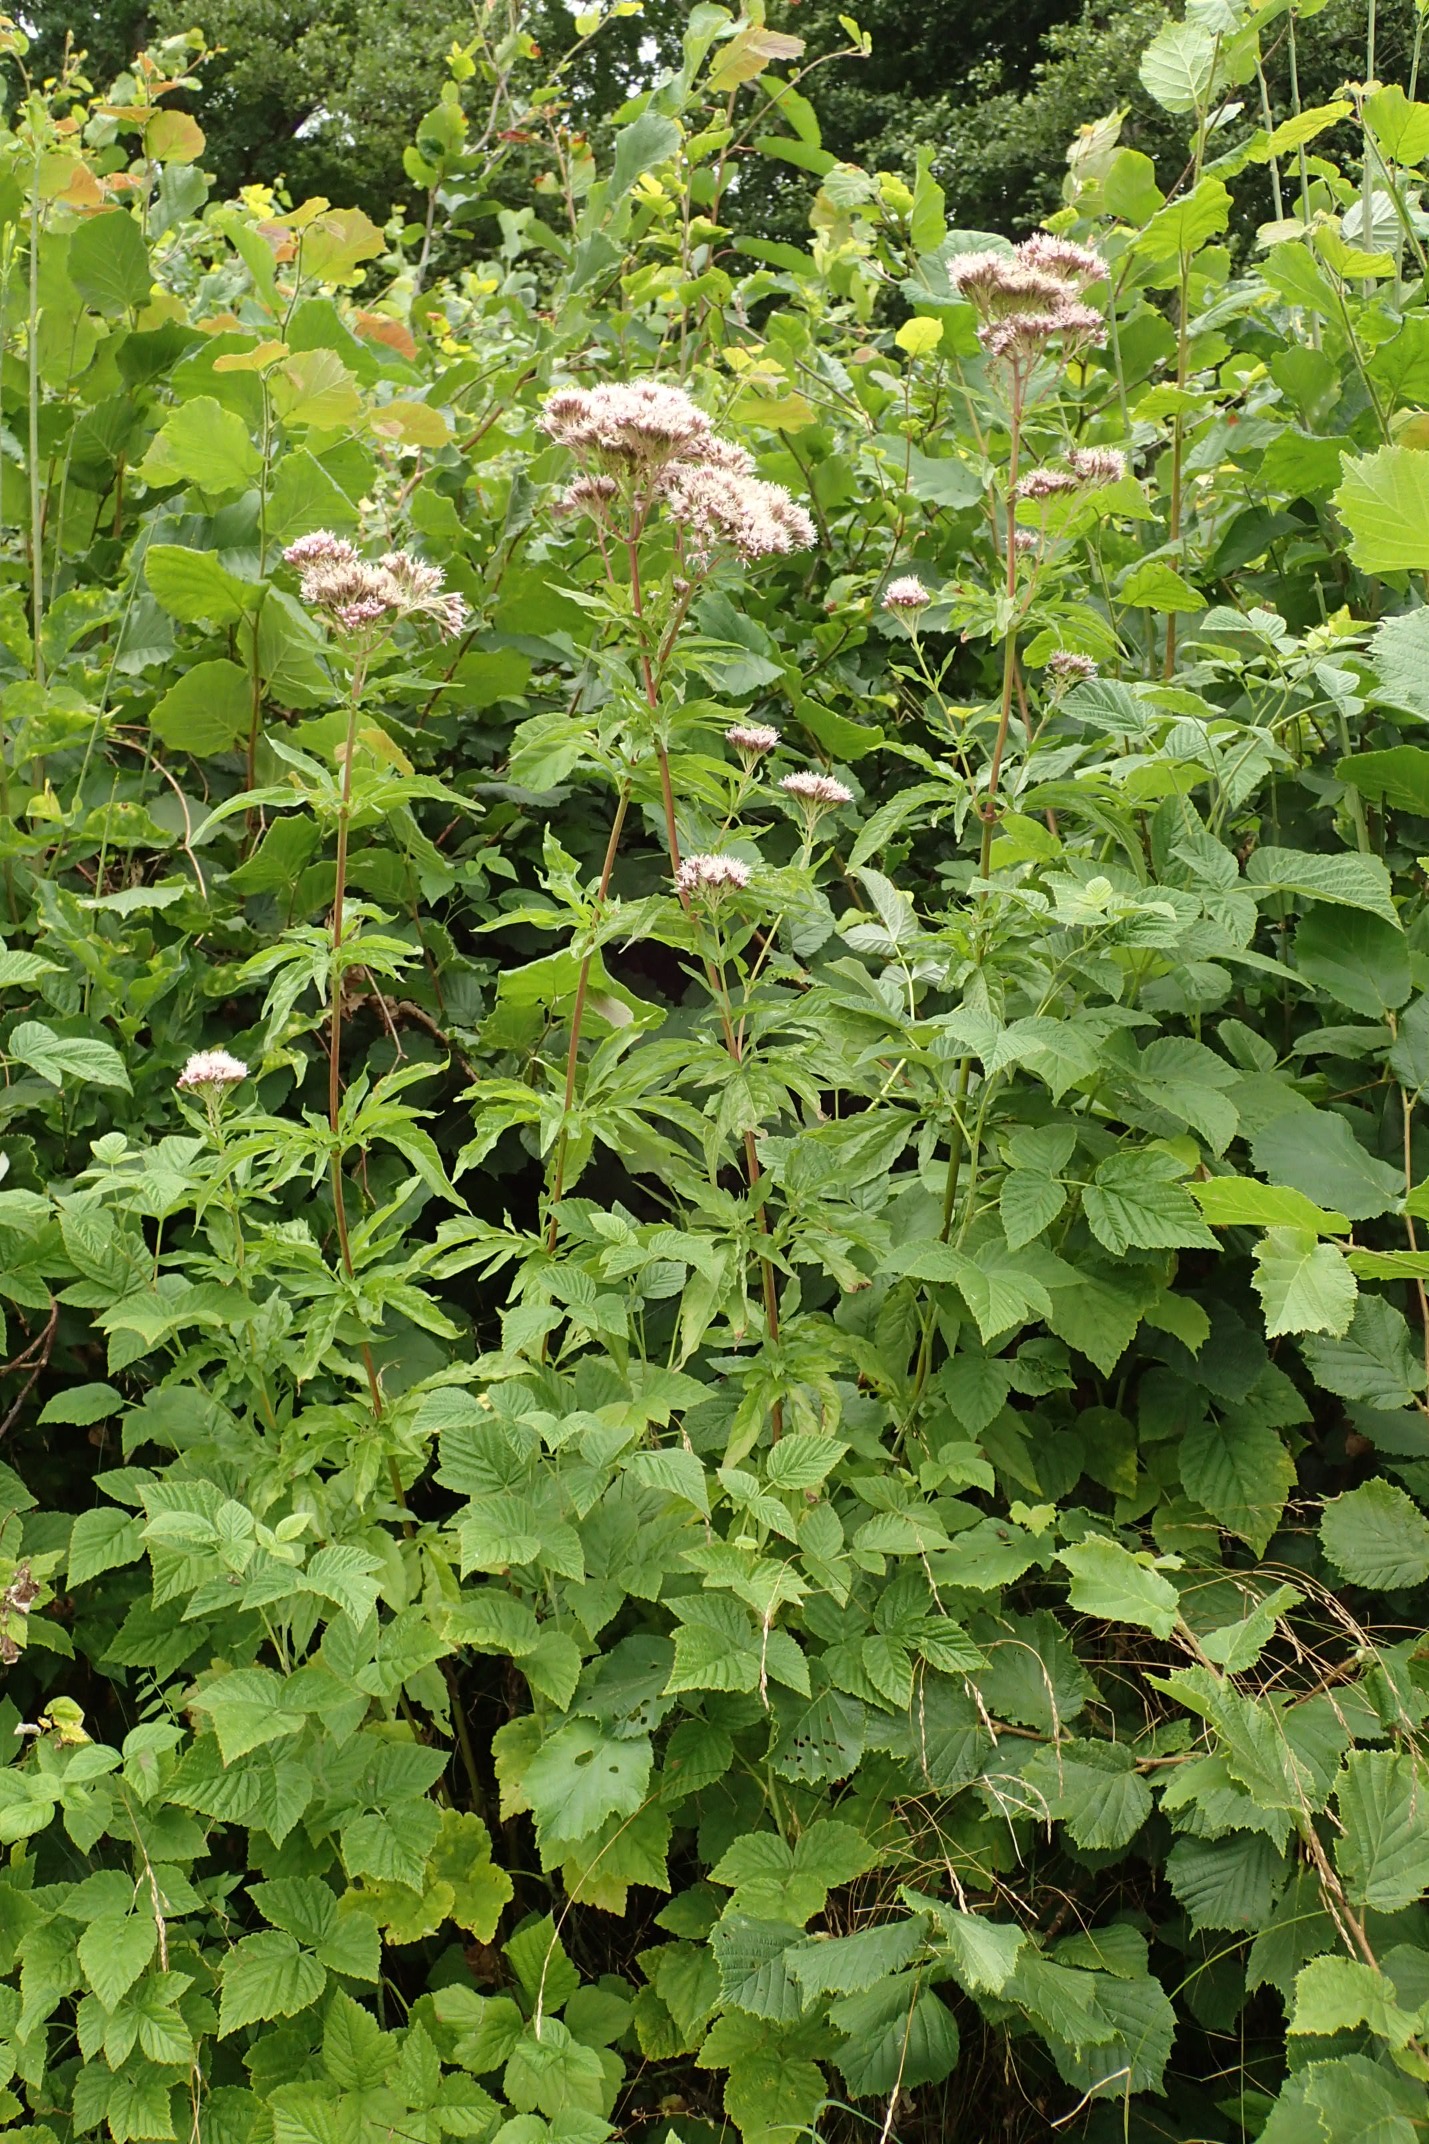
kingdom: Plantae
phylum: Tracheophyta
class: Magnoliopsida
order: Asterales
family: Asteraceae
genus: Eupatorium
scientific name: Eupatorium cannabinum
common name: Hjortetrøst
